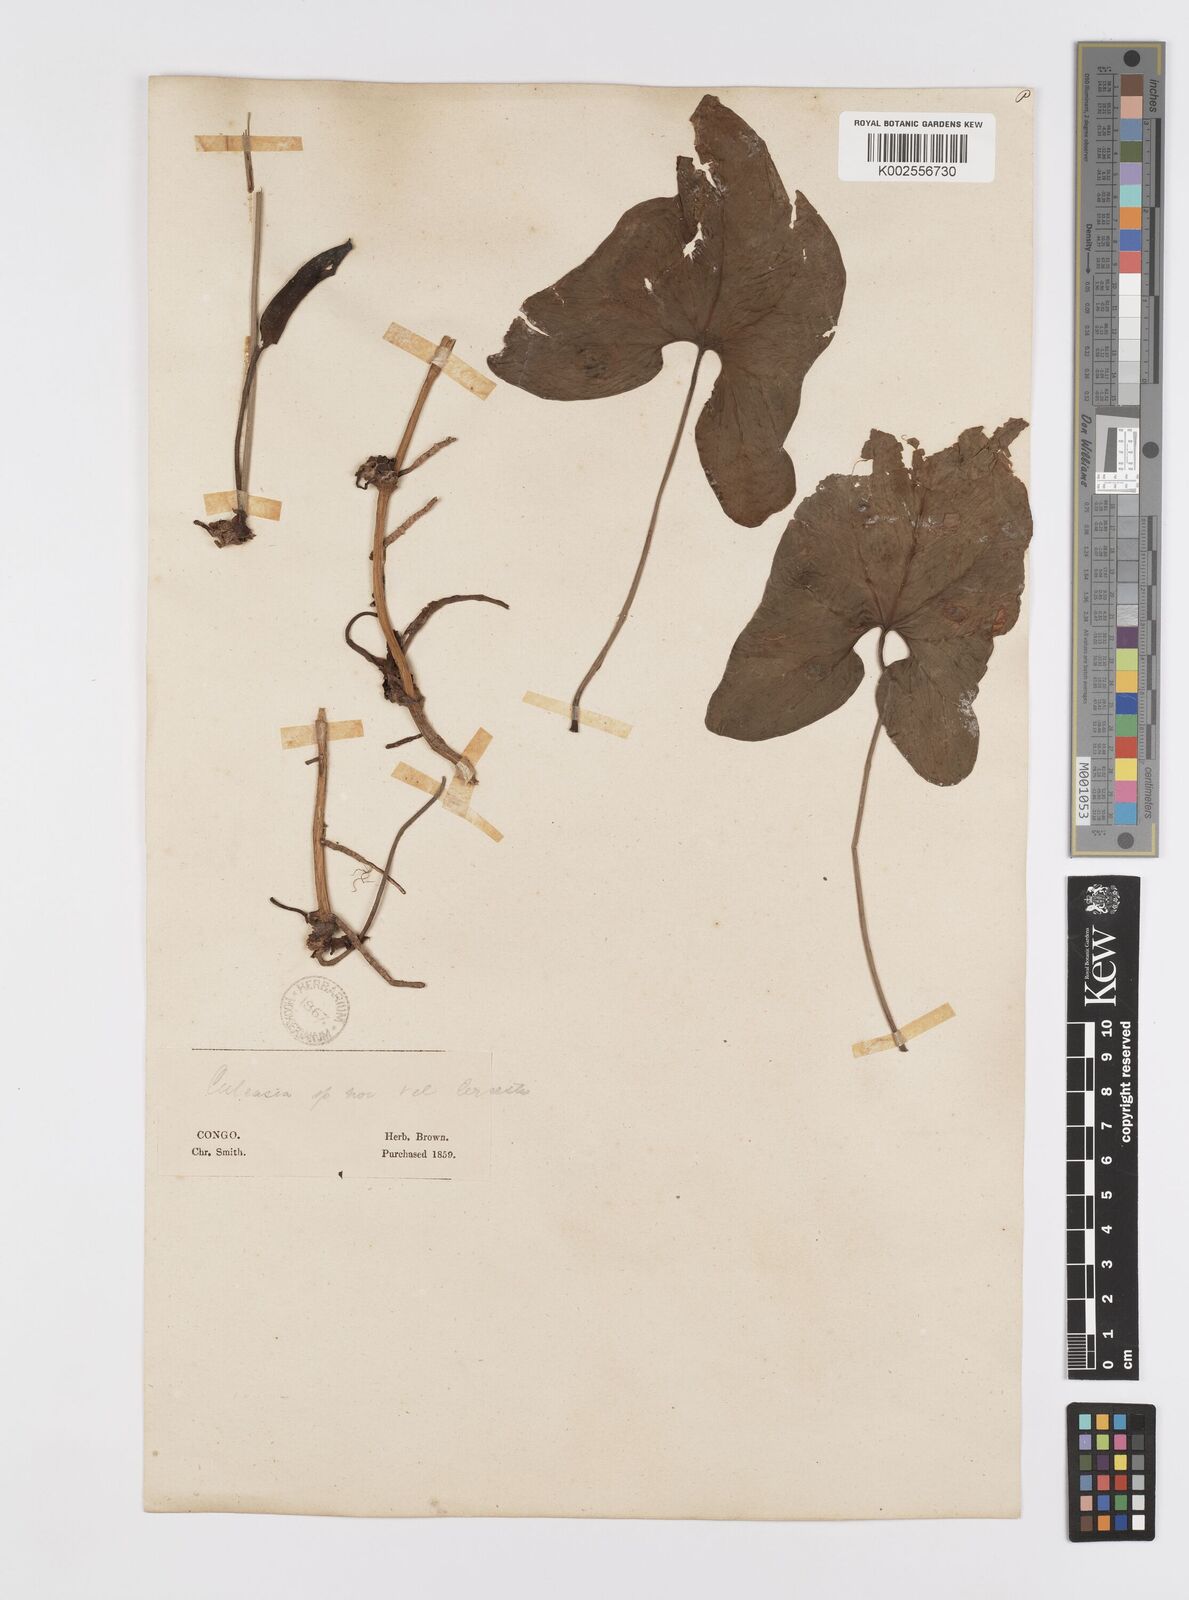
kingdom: Plantae
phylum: Tracheophyta
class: Liliopsida
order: Alismatales
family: Araceae
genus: Cercestis
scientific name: Cercestis congoensis
